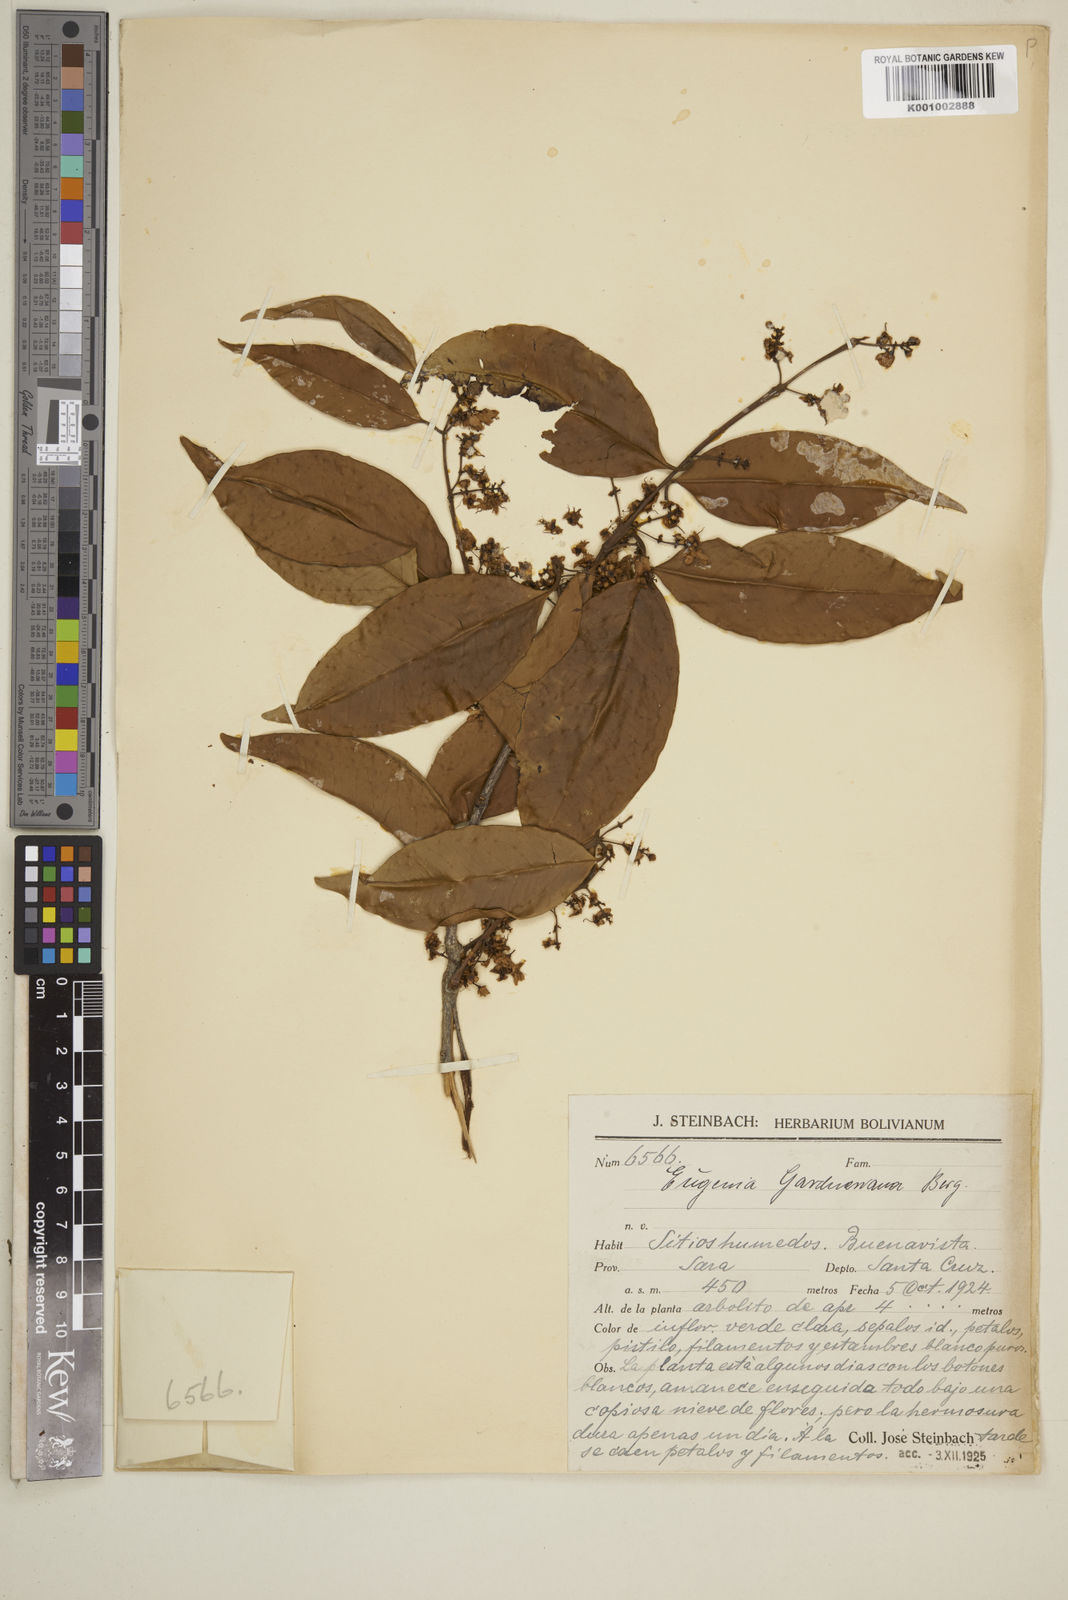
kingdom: Plantae
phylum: Tracheophyta
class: Magnoliopsida
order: Myrtales
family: Myrtaceae
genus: Eugenia
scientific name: Eugenia florida
